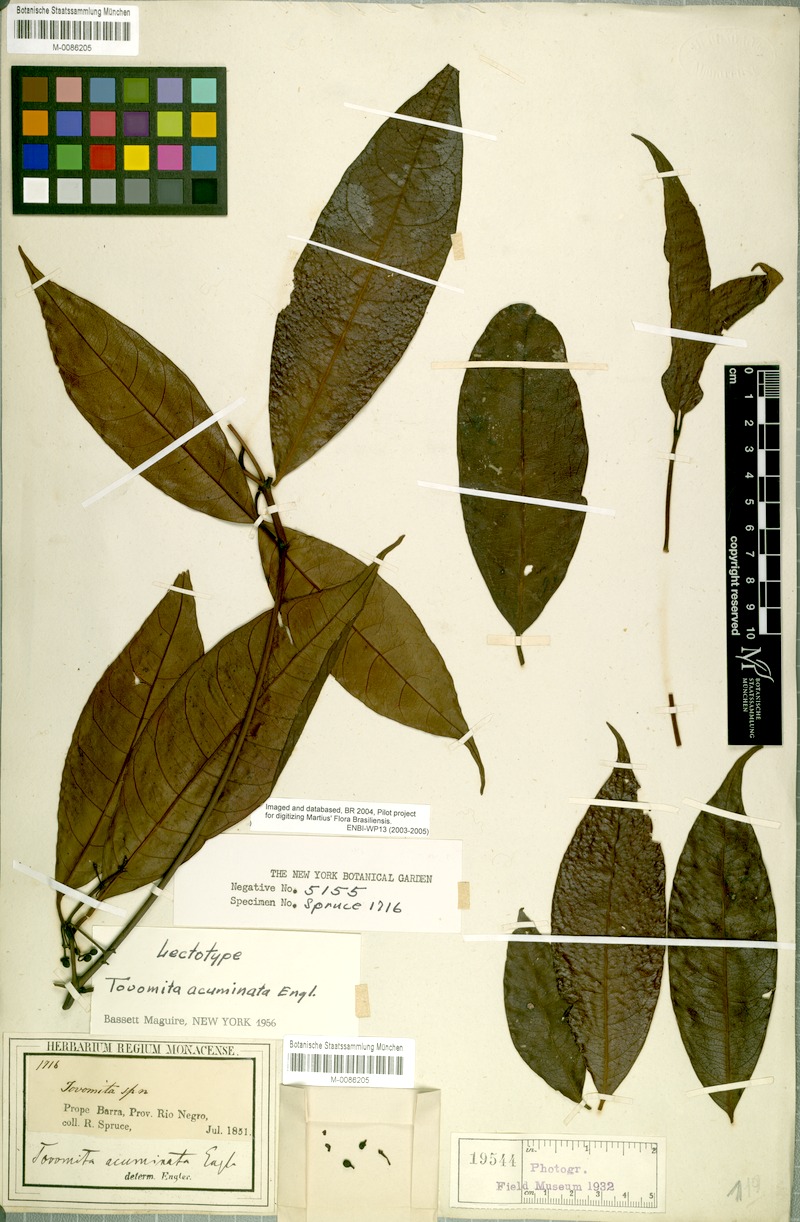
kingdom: Plantae
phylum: Tracheophyta
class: Magnoliopsida
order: Malpighiales
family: Clusiaceae
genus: Tovomita
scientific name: Tovomita gracilipes
